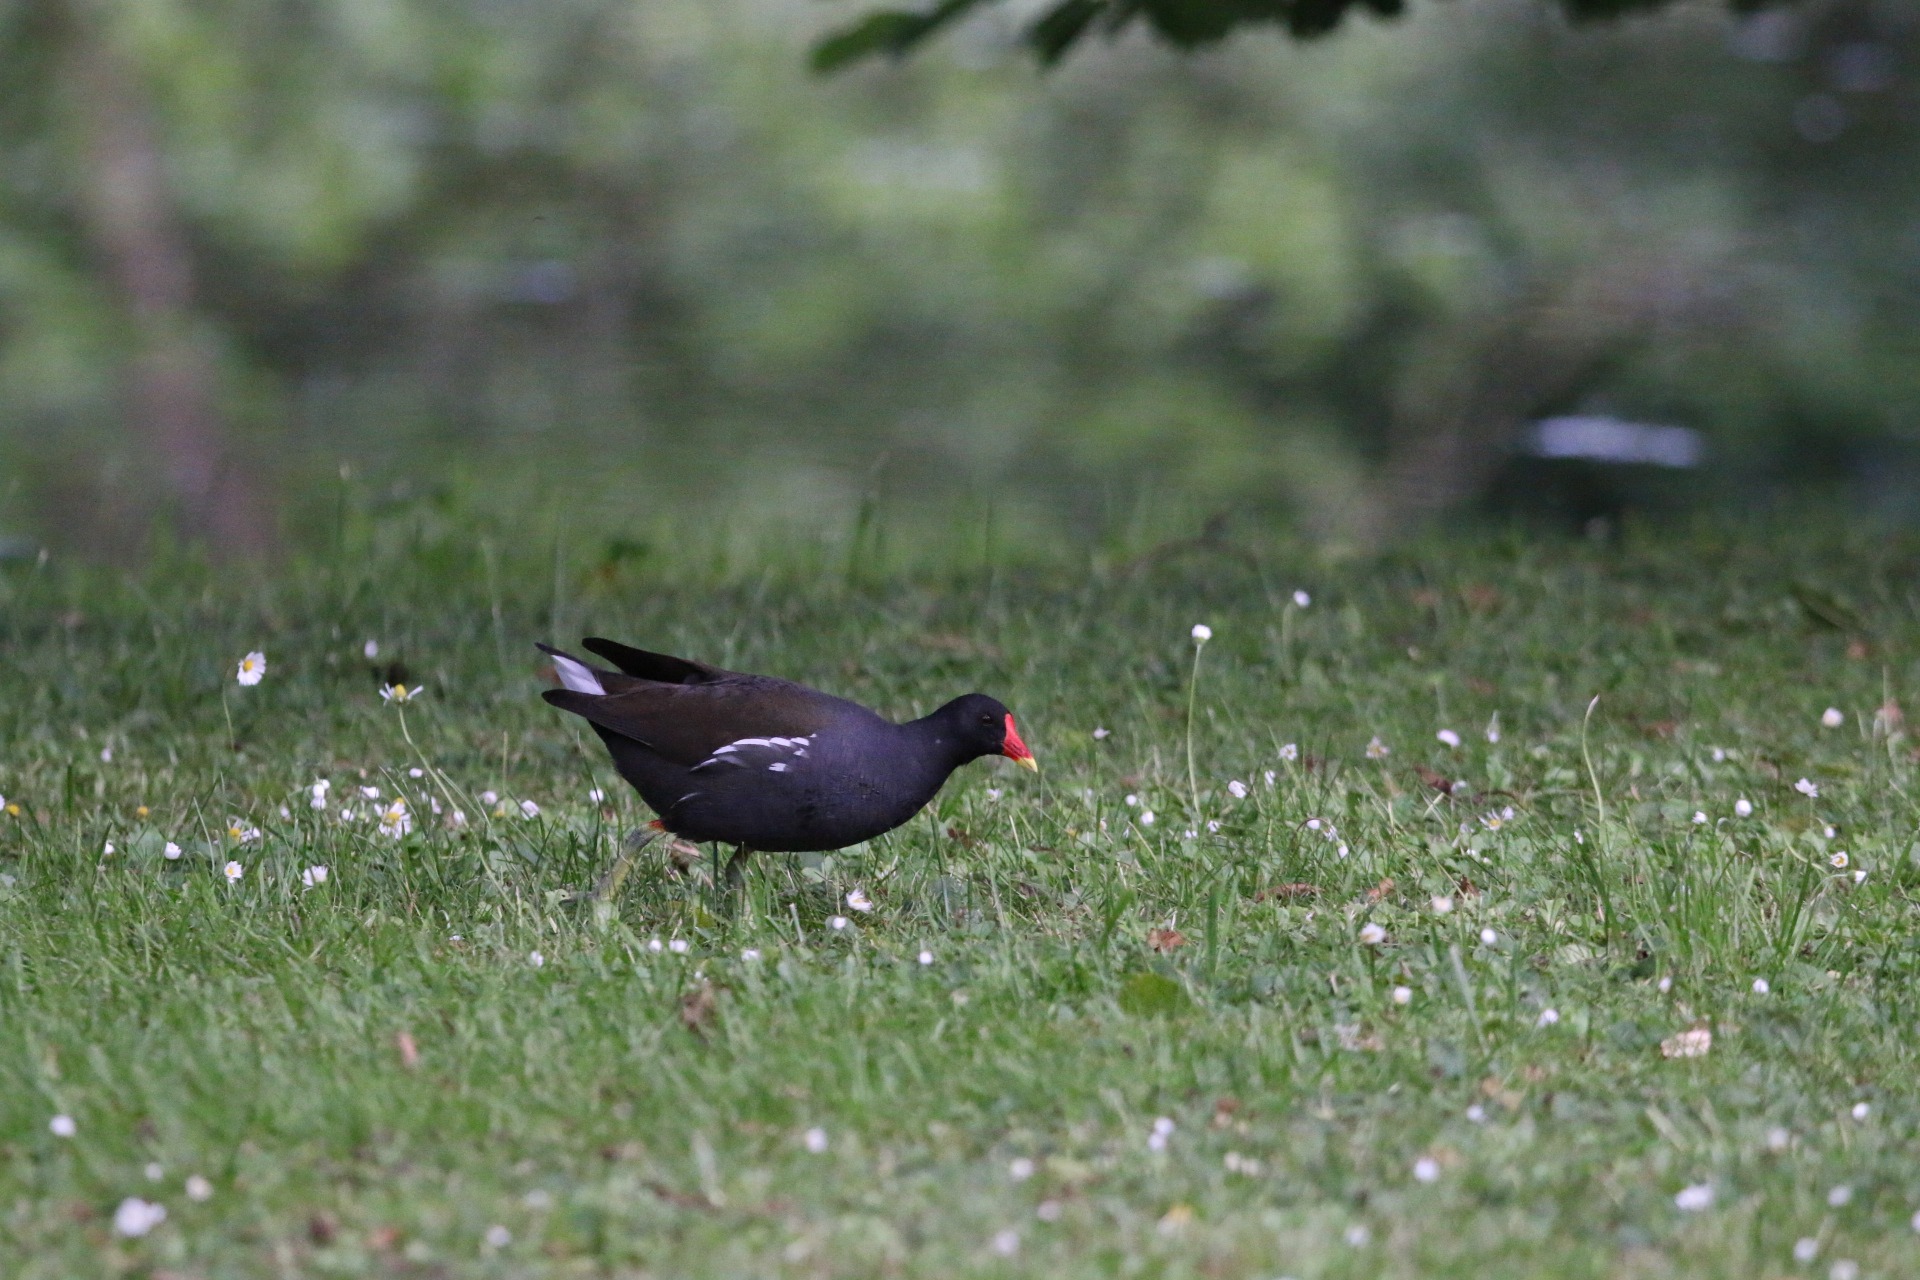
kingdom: Animalia
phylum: Chordata
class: Aves
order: Gruiformes
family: Rallidae
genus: Gallinula
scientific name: Gallinula chloropus
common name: Grønbenet rørhøne
